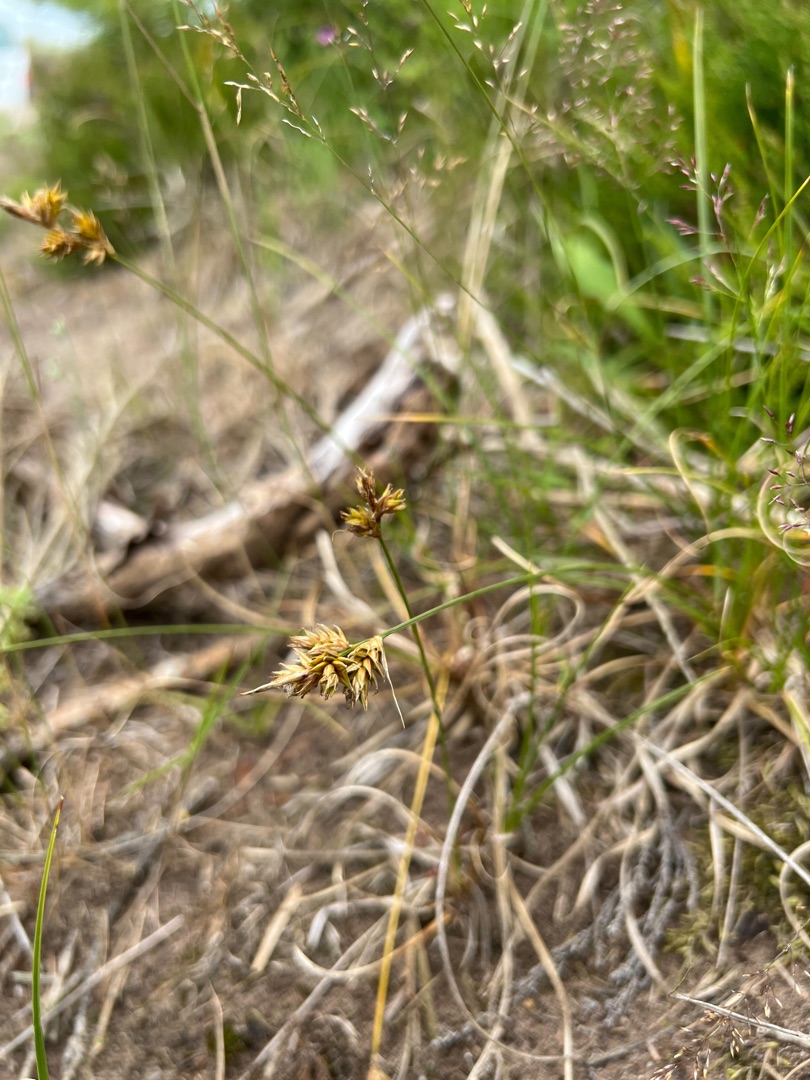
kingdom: Plantae
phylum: Tracheophyta
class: Liliopsida
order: Poales
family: Cyperaceae
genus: Carex
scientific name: Carex arenaria
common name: Sand-star
